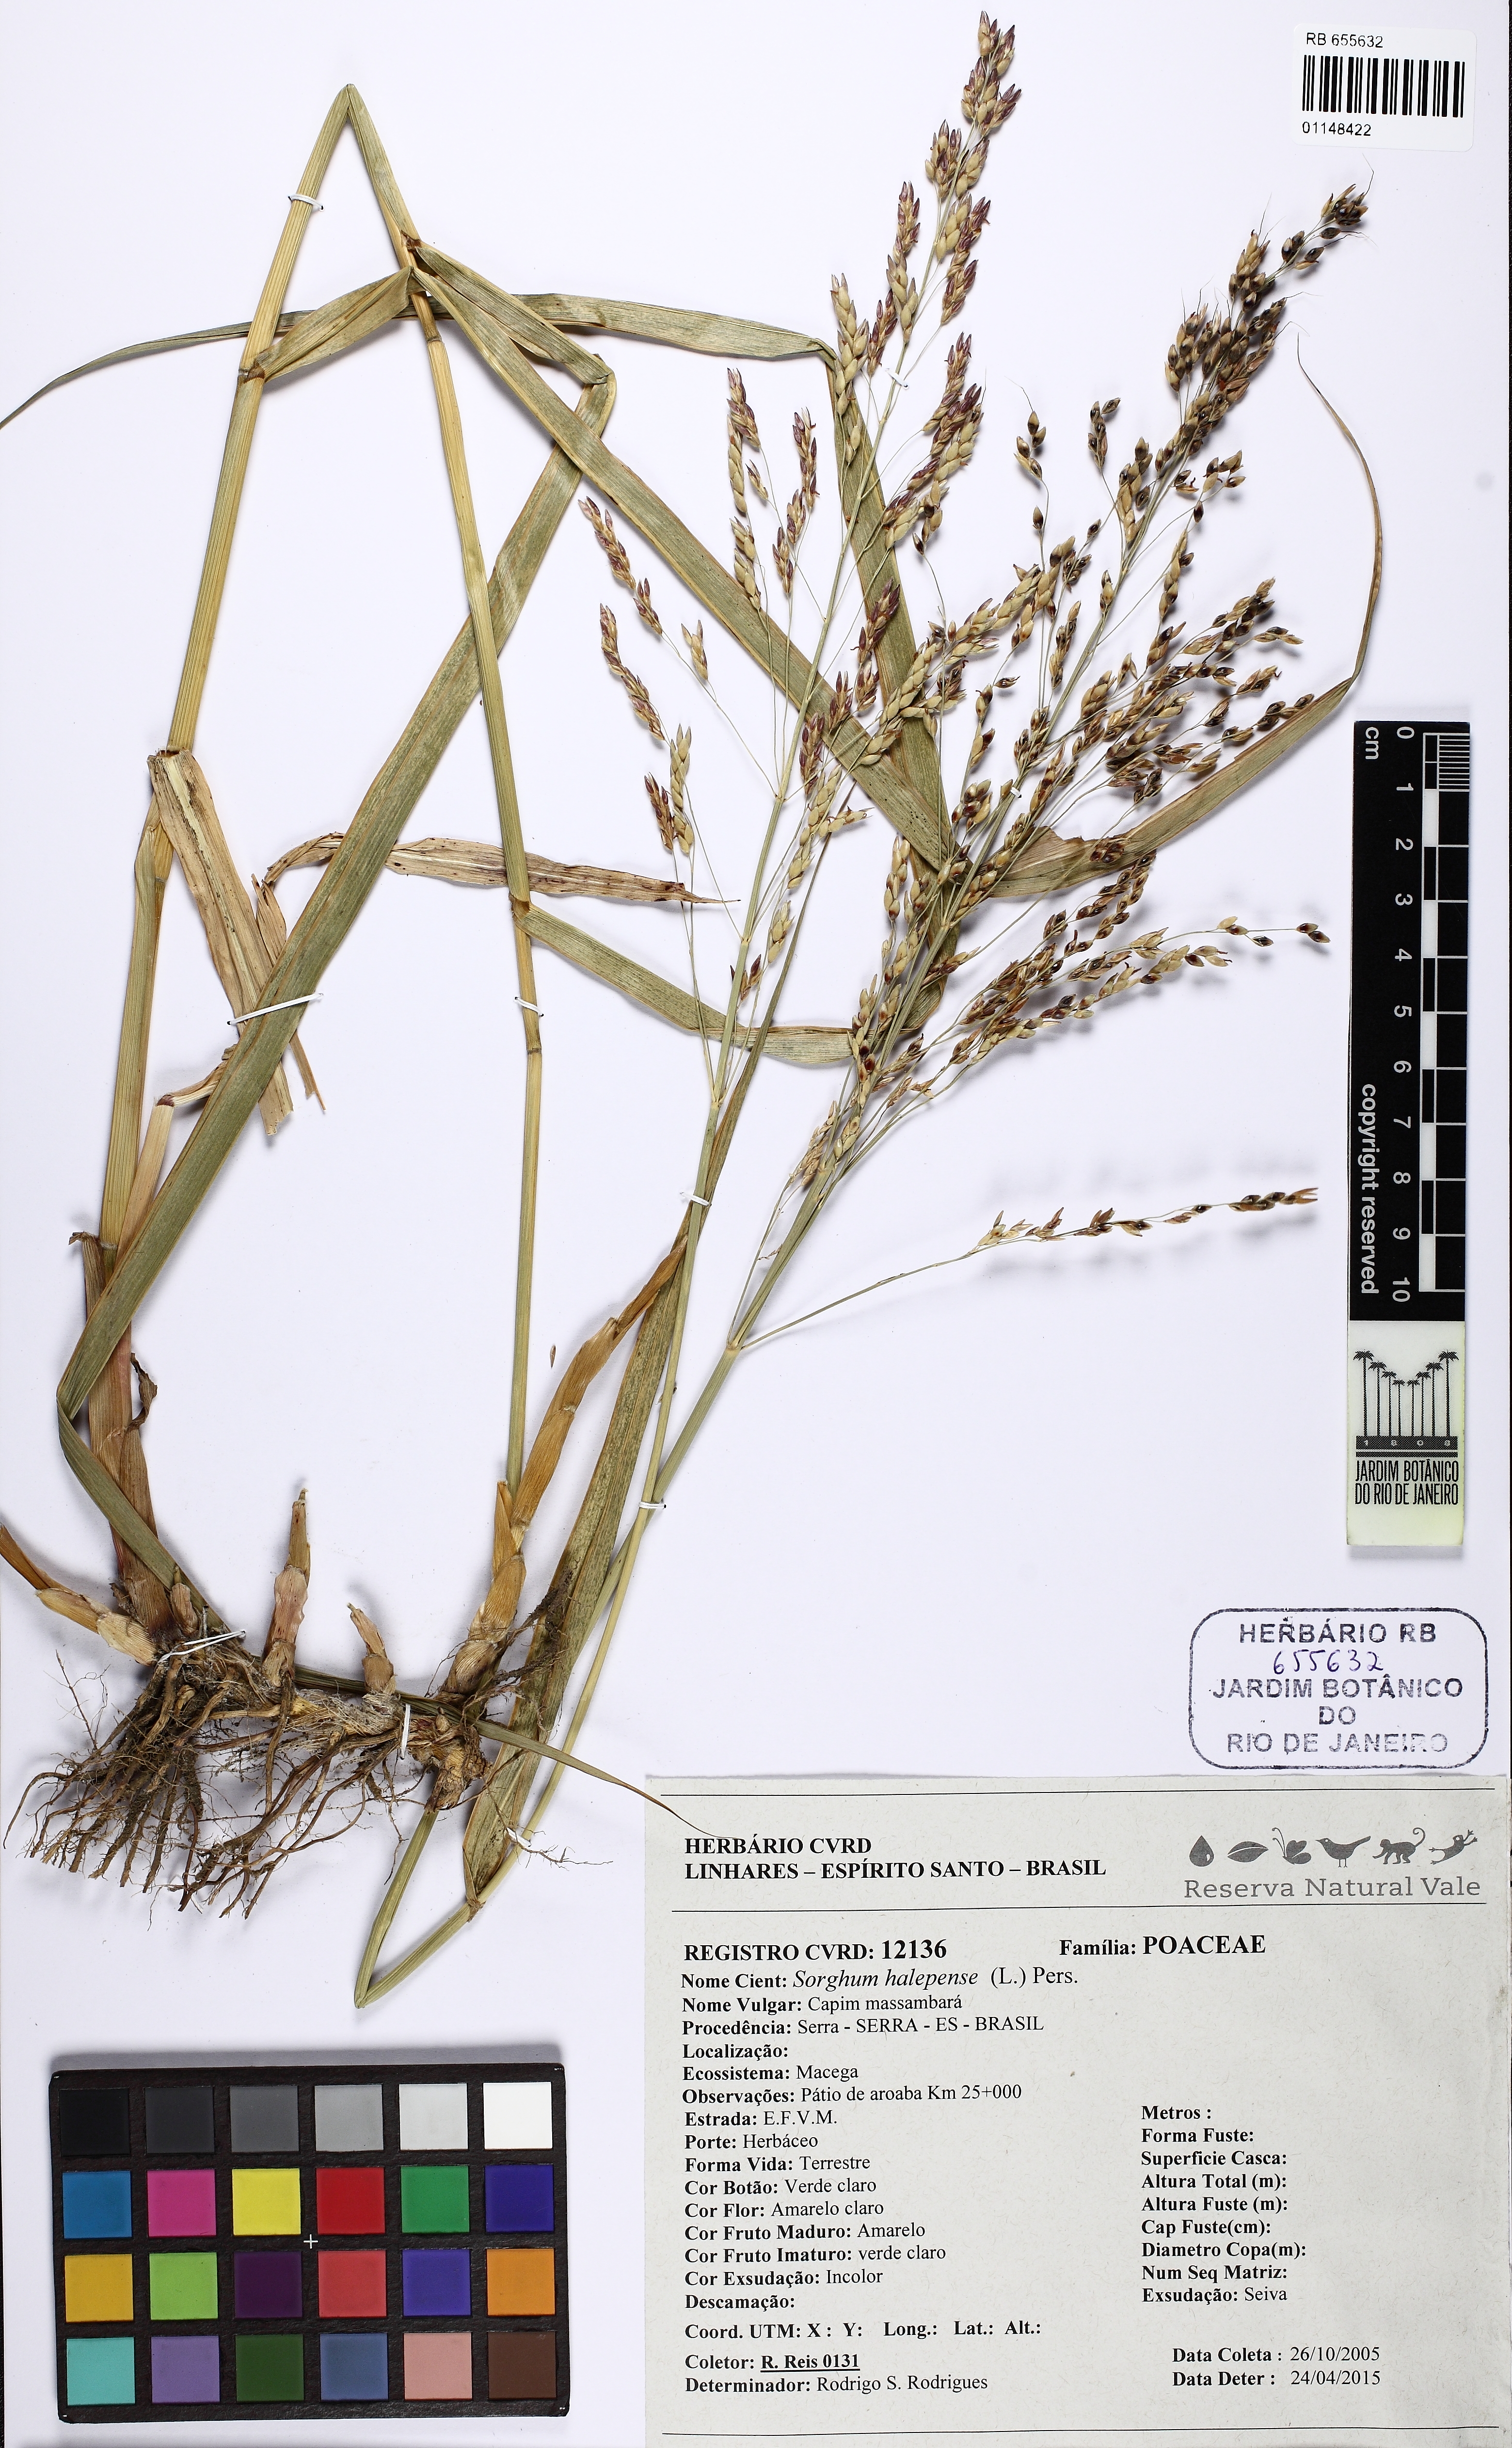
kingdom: Plantae
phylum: Tracheophyta
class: Liliopsida
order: Poales
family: Poaceae
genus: Sorghum
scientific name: Sorghum halepense
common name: Johnson-grass
